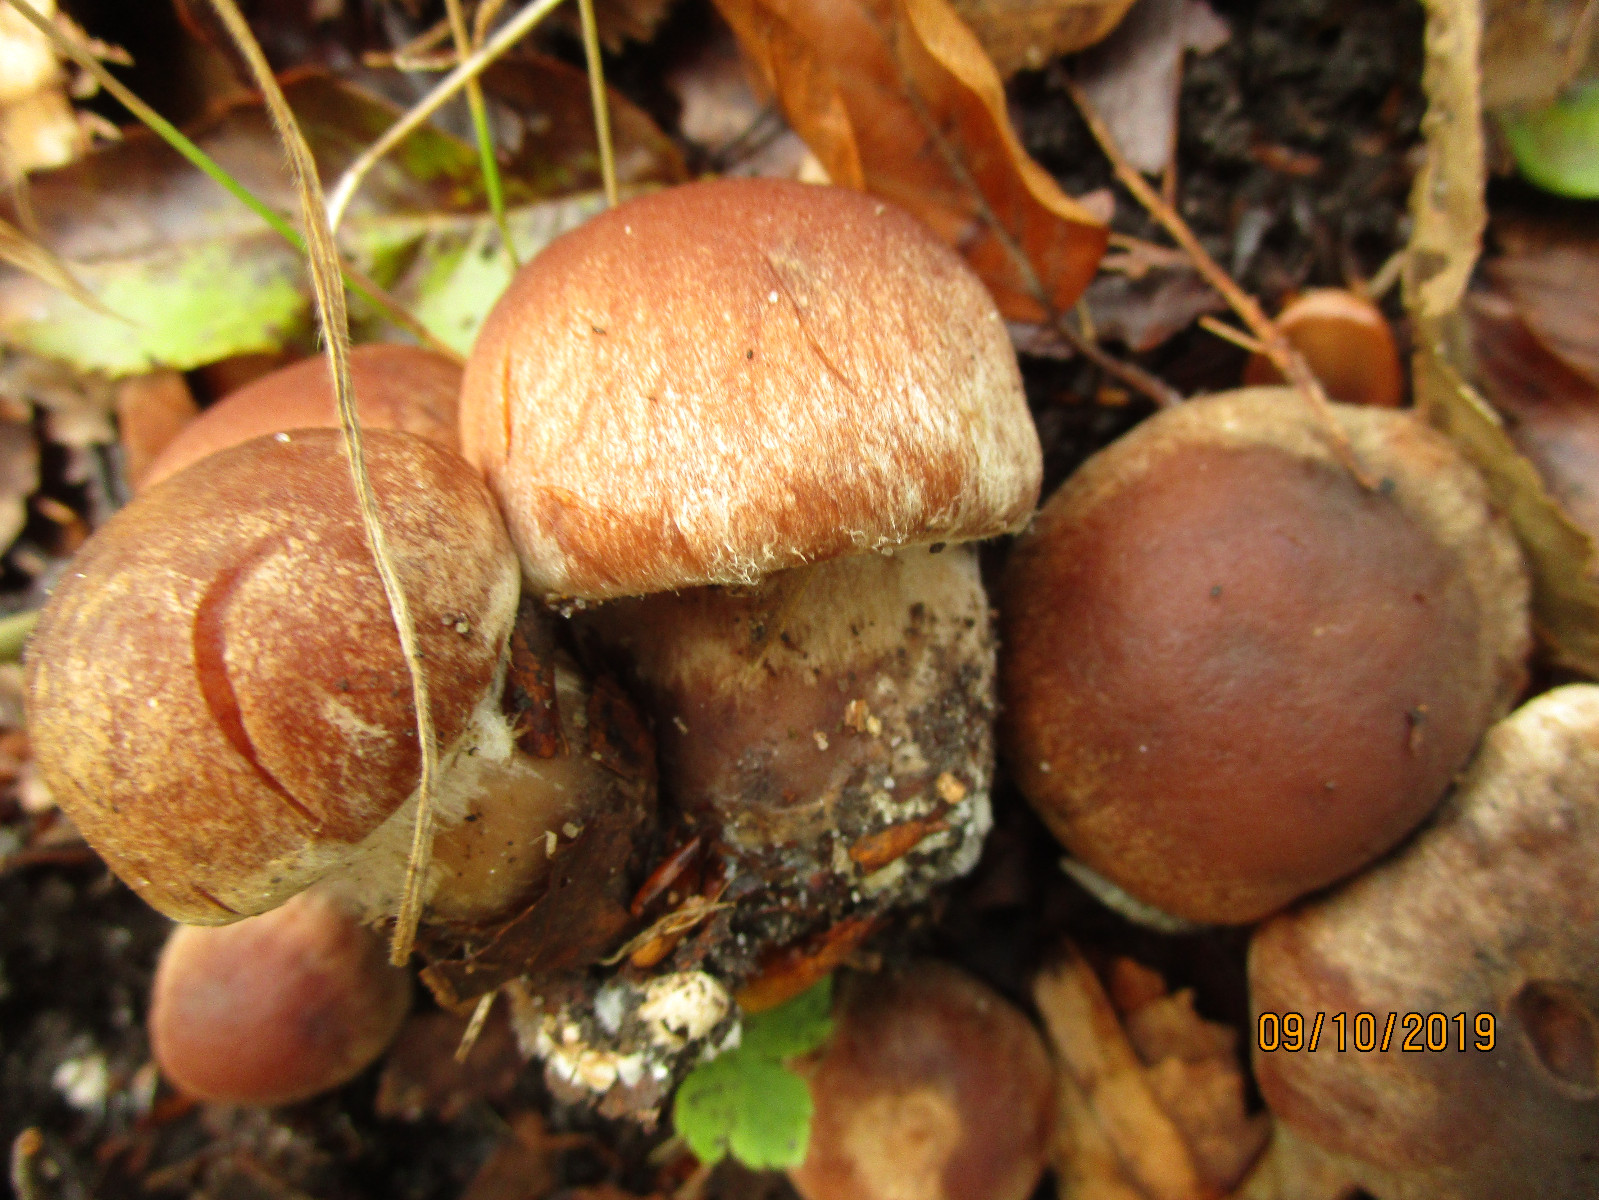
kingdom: Fungi
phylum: Basidiomycota
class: Agaricomycetes
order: Agaricales
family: Cortinariaceae
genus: Cortinarius
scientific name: Cortinarius
